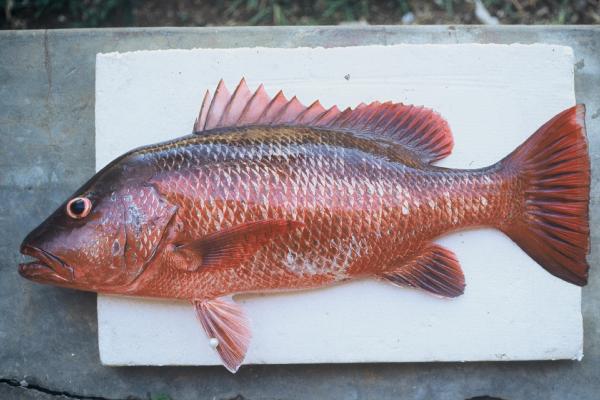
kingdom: Animalia
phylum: Chordata
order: Perciformes
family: Lutjanidae
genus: Lutjanus
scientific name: Lutjanus argentimaculatus
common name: Mangrove red snapper
